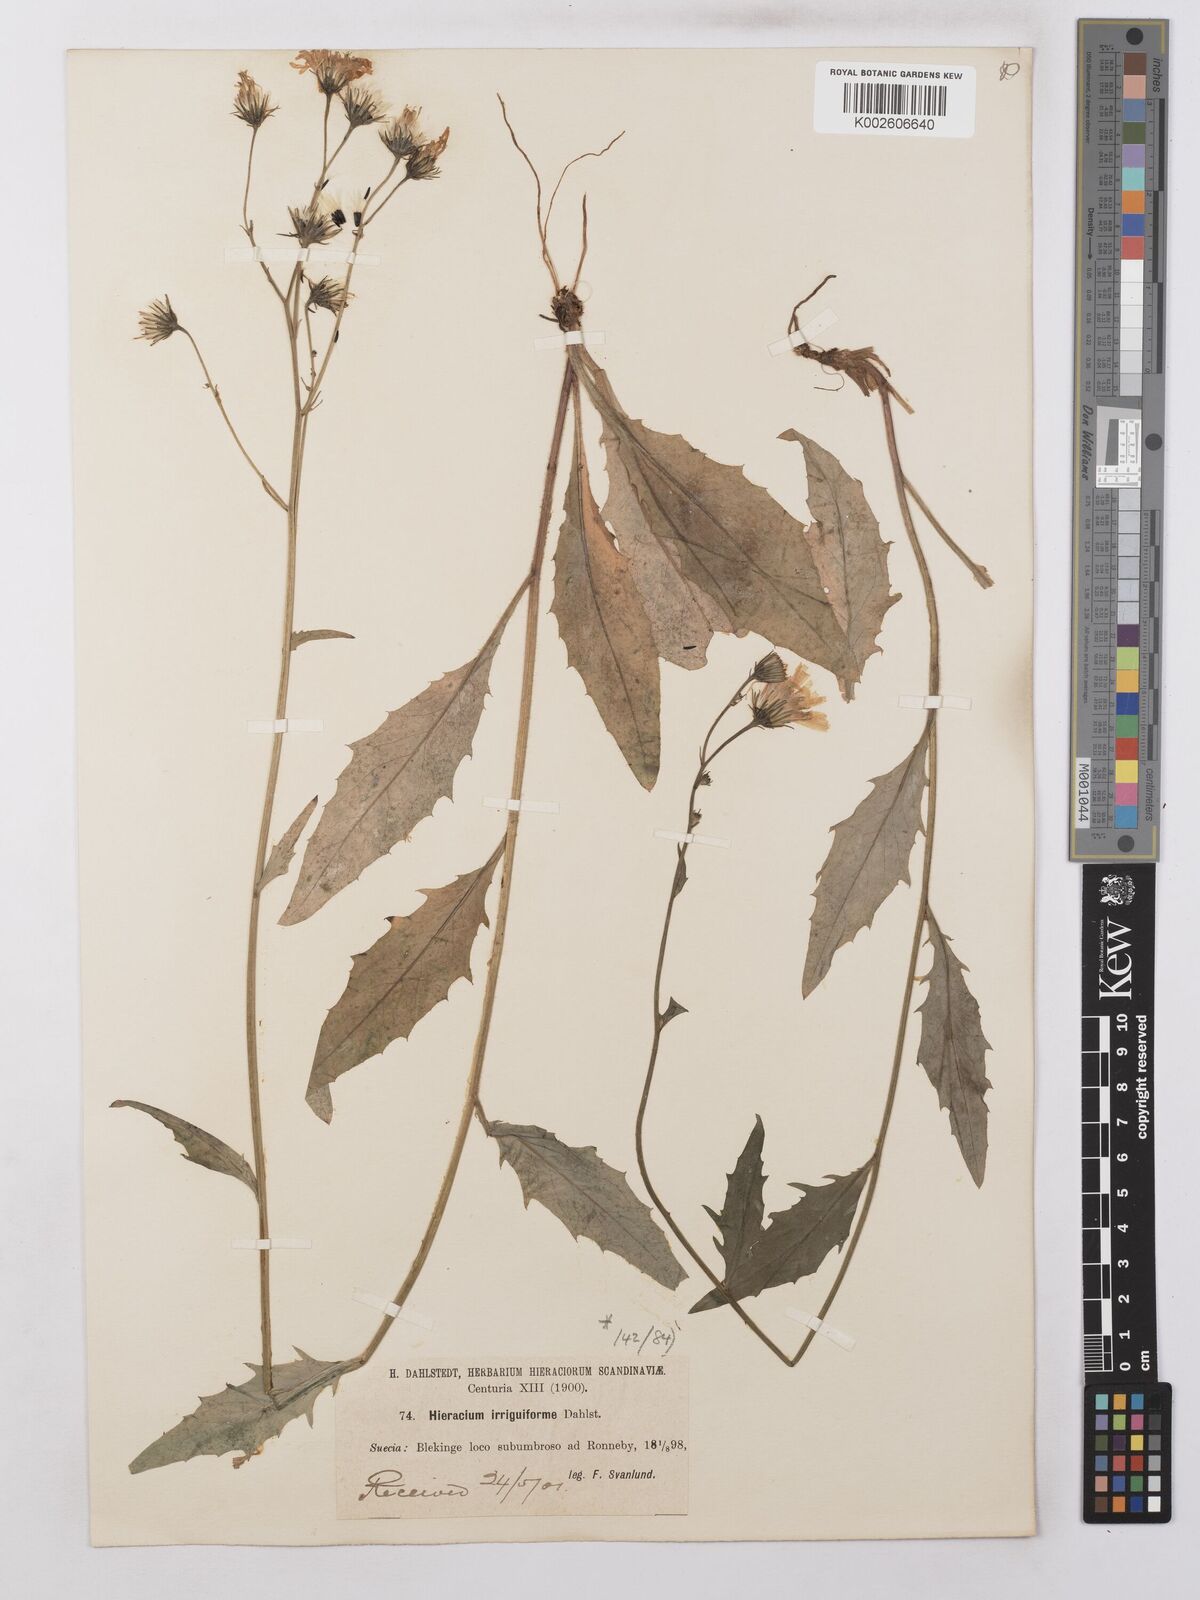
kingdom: Plantae
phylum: Tracheophyta
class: Magnoliopsida
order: Asterales
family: Asteraceae
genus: Hieracium
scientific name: Hieracium lachenalii
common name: Common hawkweed
